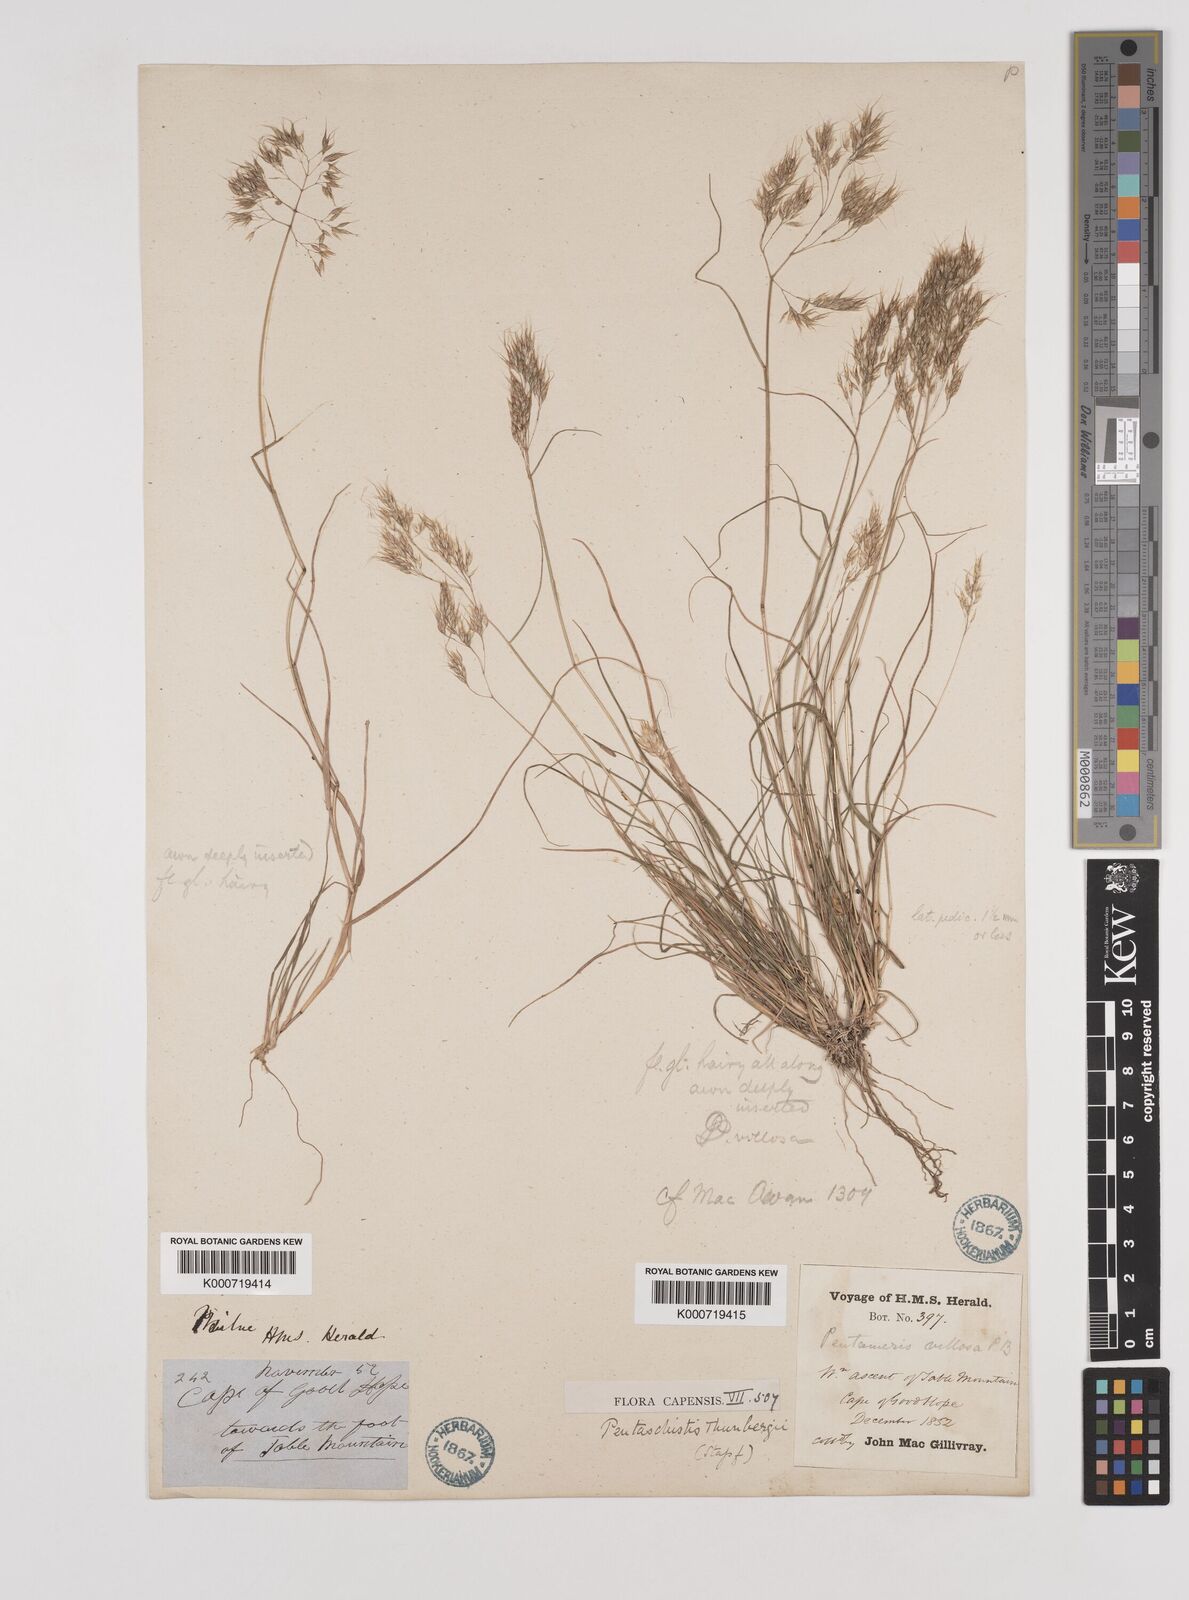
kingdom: Plantae
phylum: Tracheophyta
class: Liliopsida
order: Poales
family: Poaceae
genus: Pentameris
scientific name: Pentameris triseta
